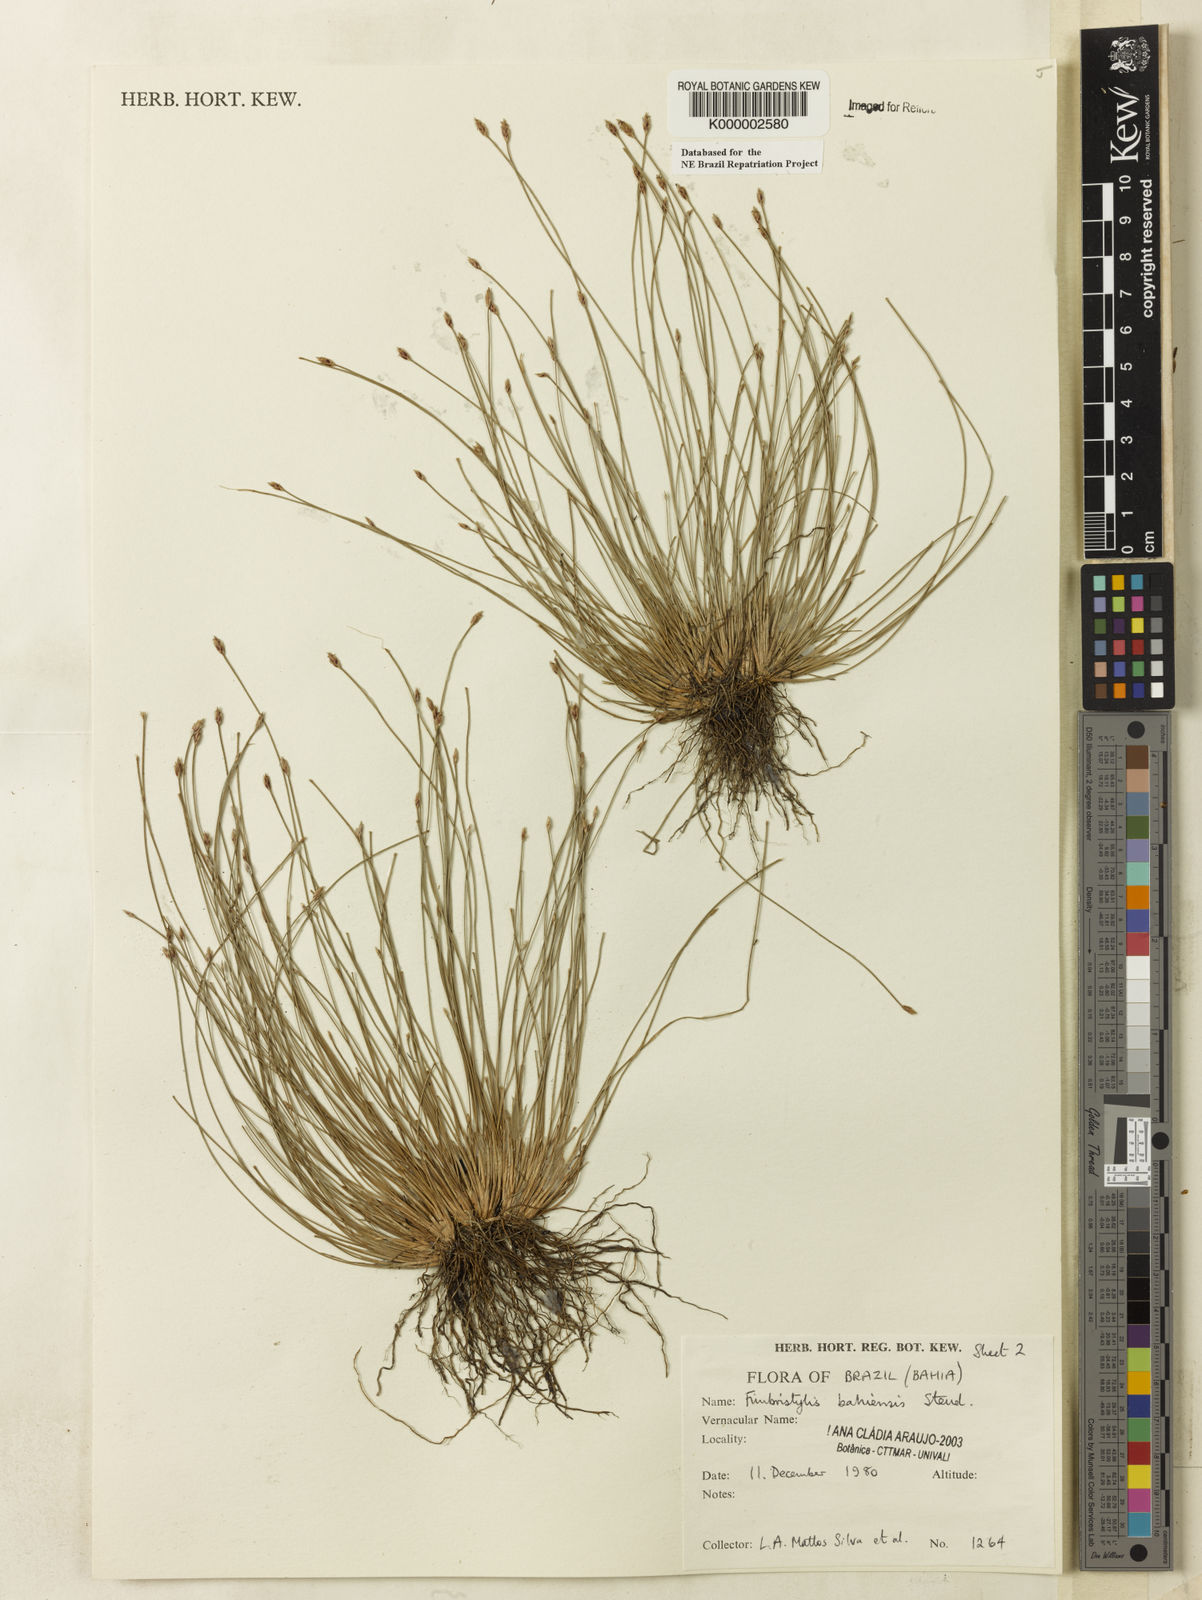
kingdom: Plantae
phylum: Tracheophyta
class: Liliopsida
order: Poales
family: Cyperaceae
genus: Fimbristylis
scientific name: Fimbristylis bahiensis
